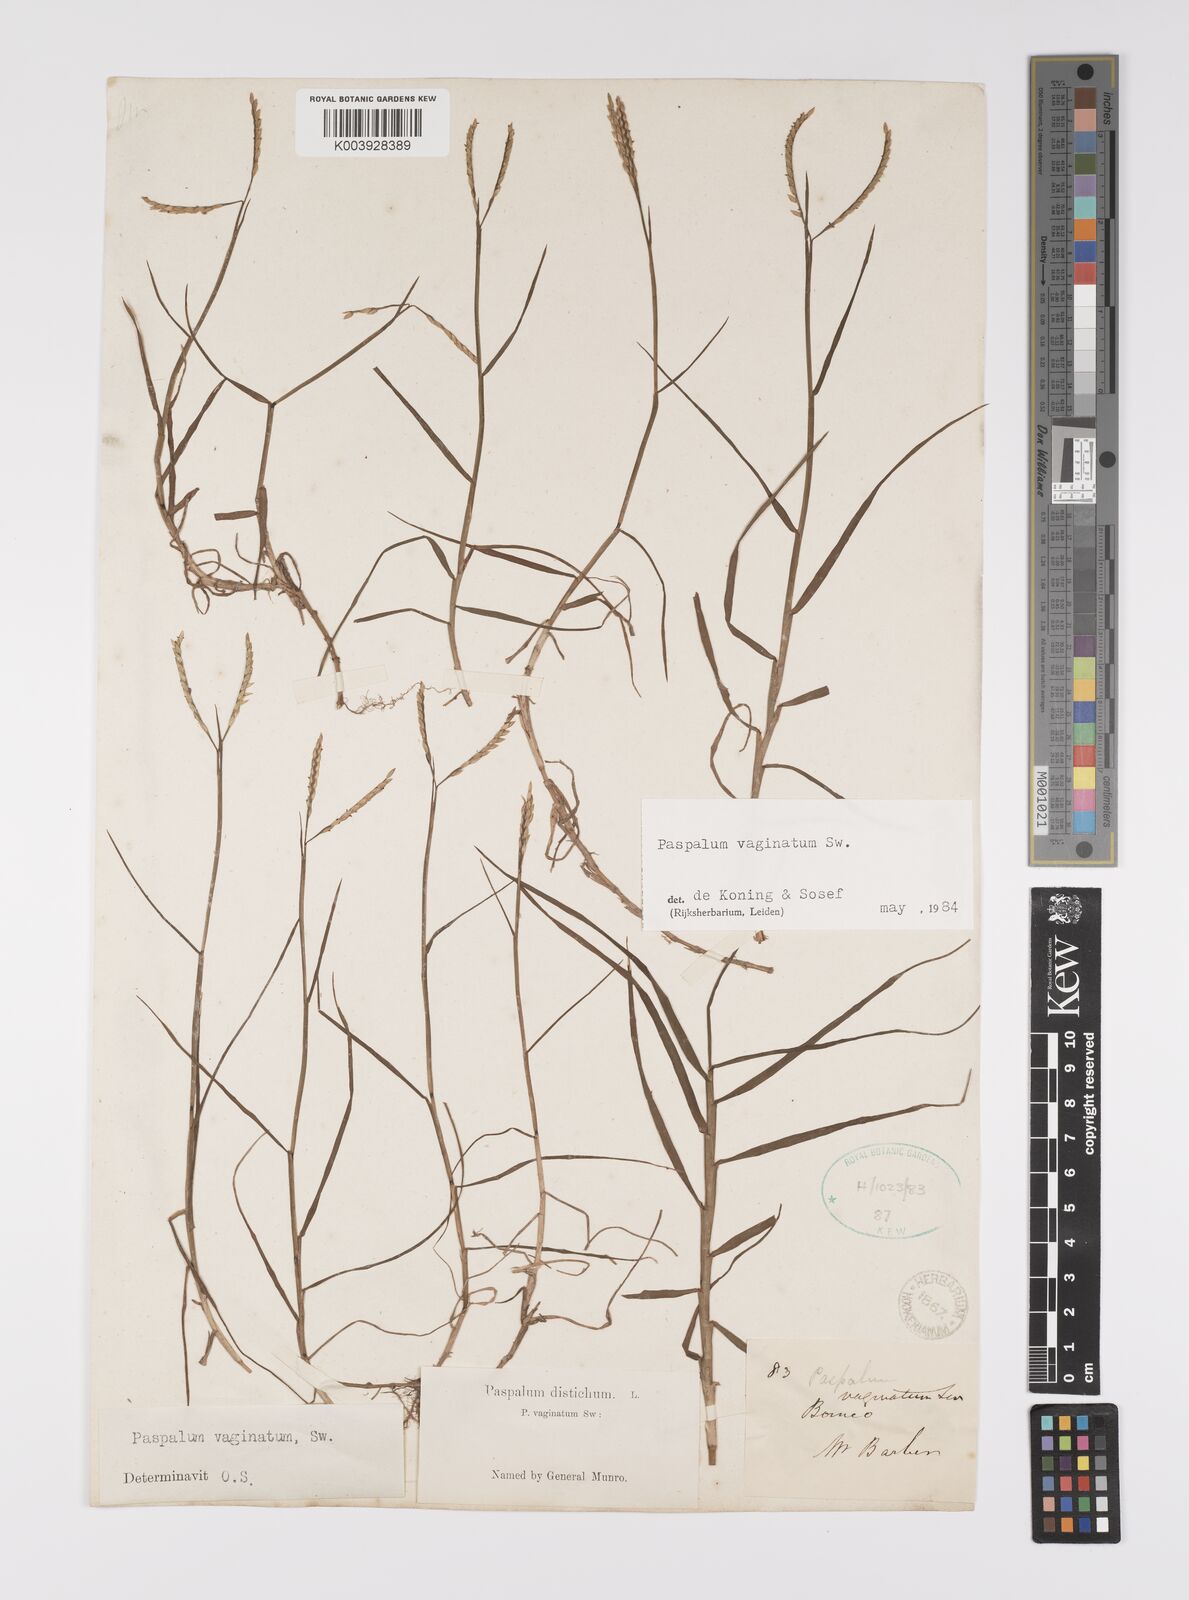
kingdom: Plantae
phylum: Tracheophyta
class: Liliopsida
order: Poales
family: Poaceae
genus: Paspalum
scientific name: Paspalum vaginatum
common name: Seashore paspalum
